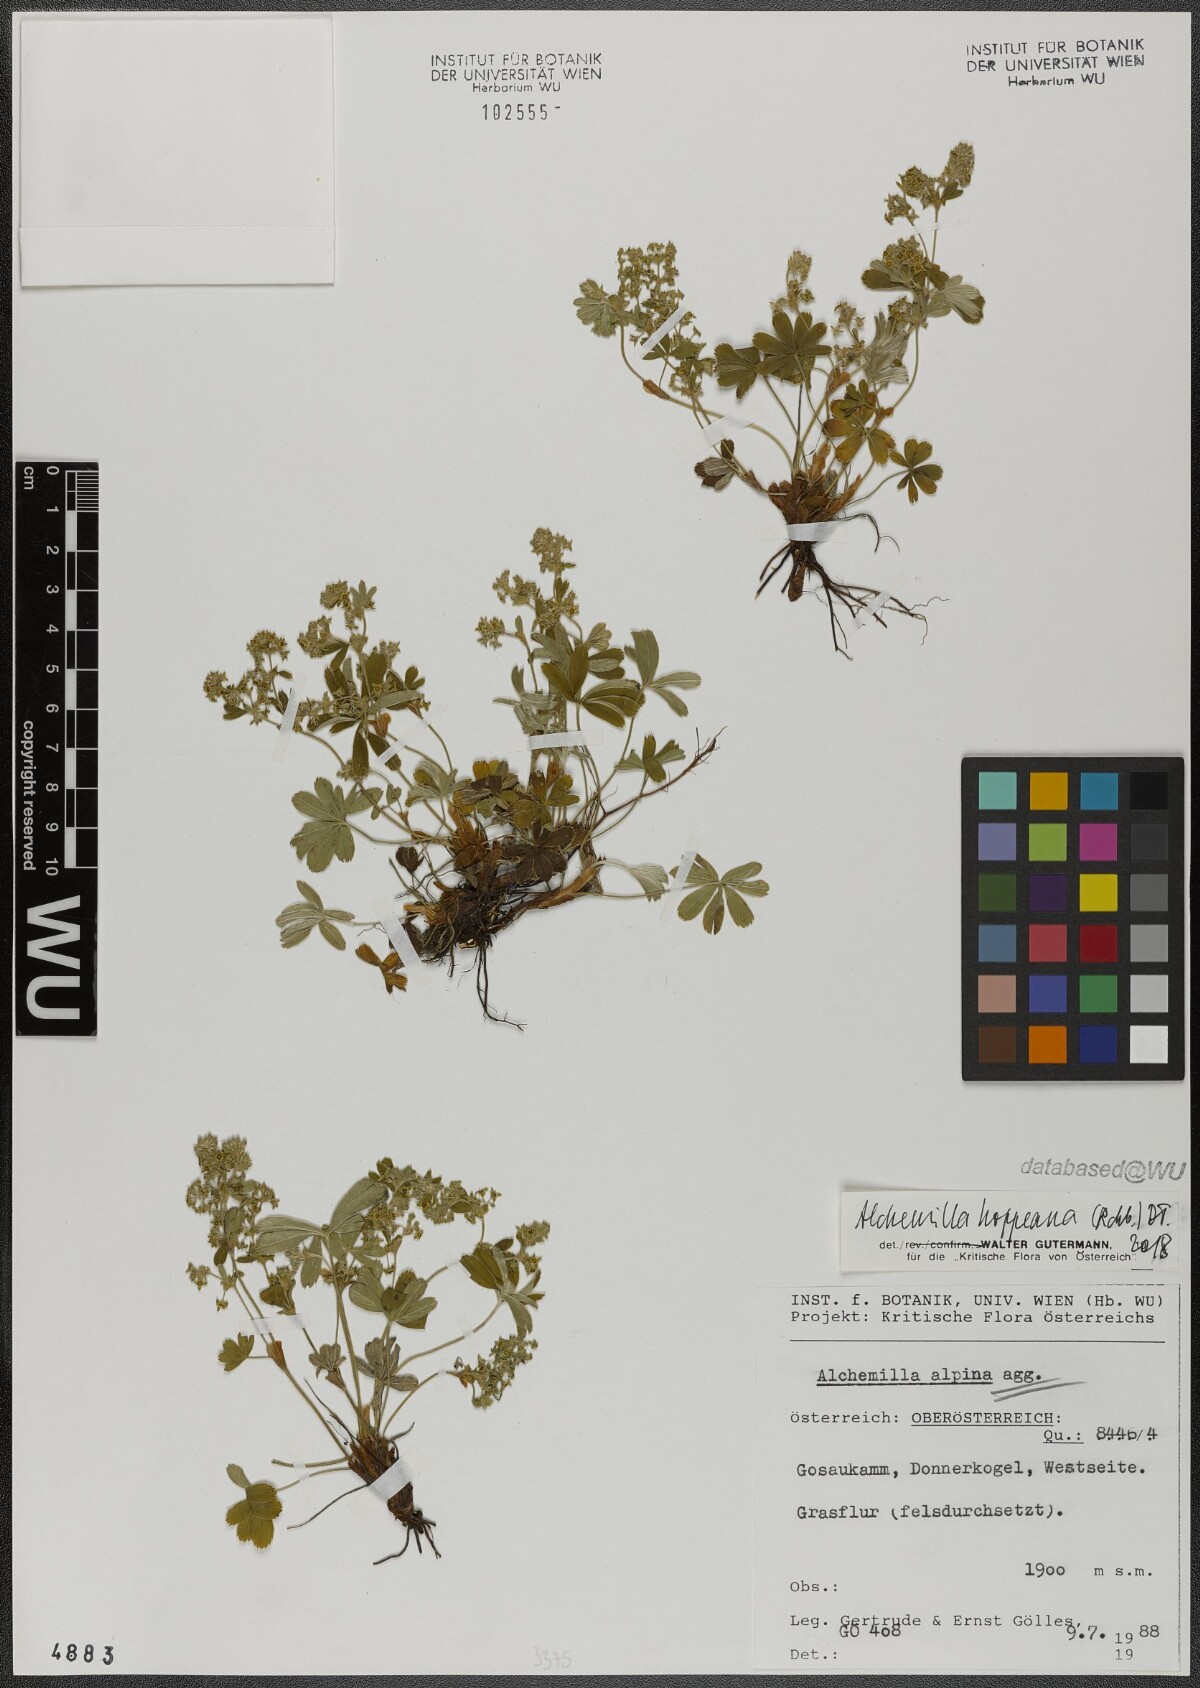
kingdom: Plantae
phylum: Tracheophyta
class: Magnoliopsida
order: Rosales
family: Rosaceae
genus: Alchemilla
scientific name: Alchemilla hoppeana
